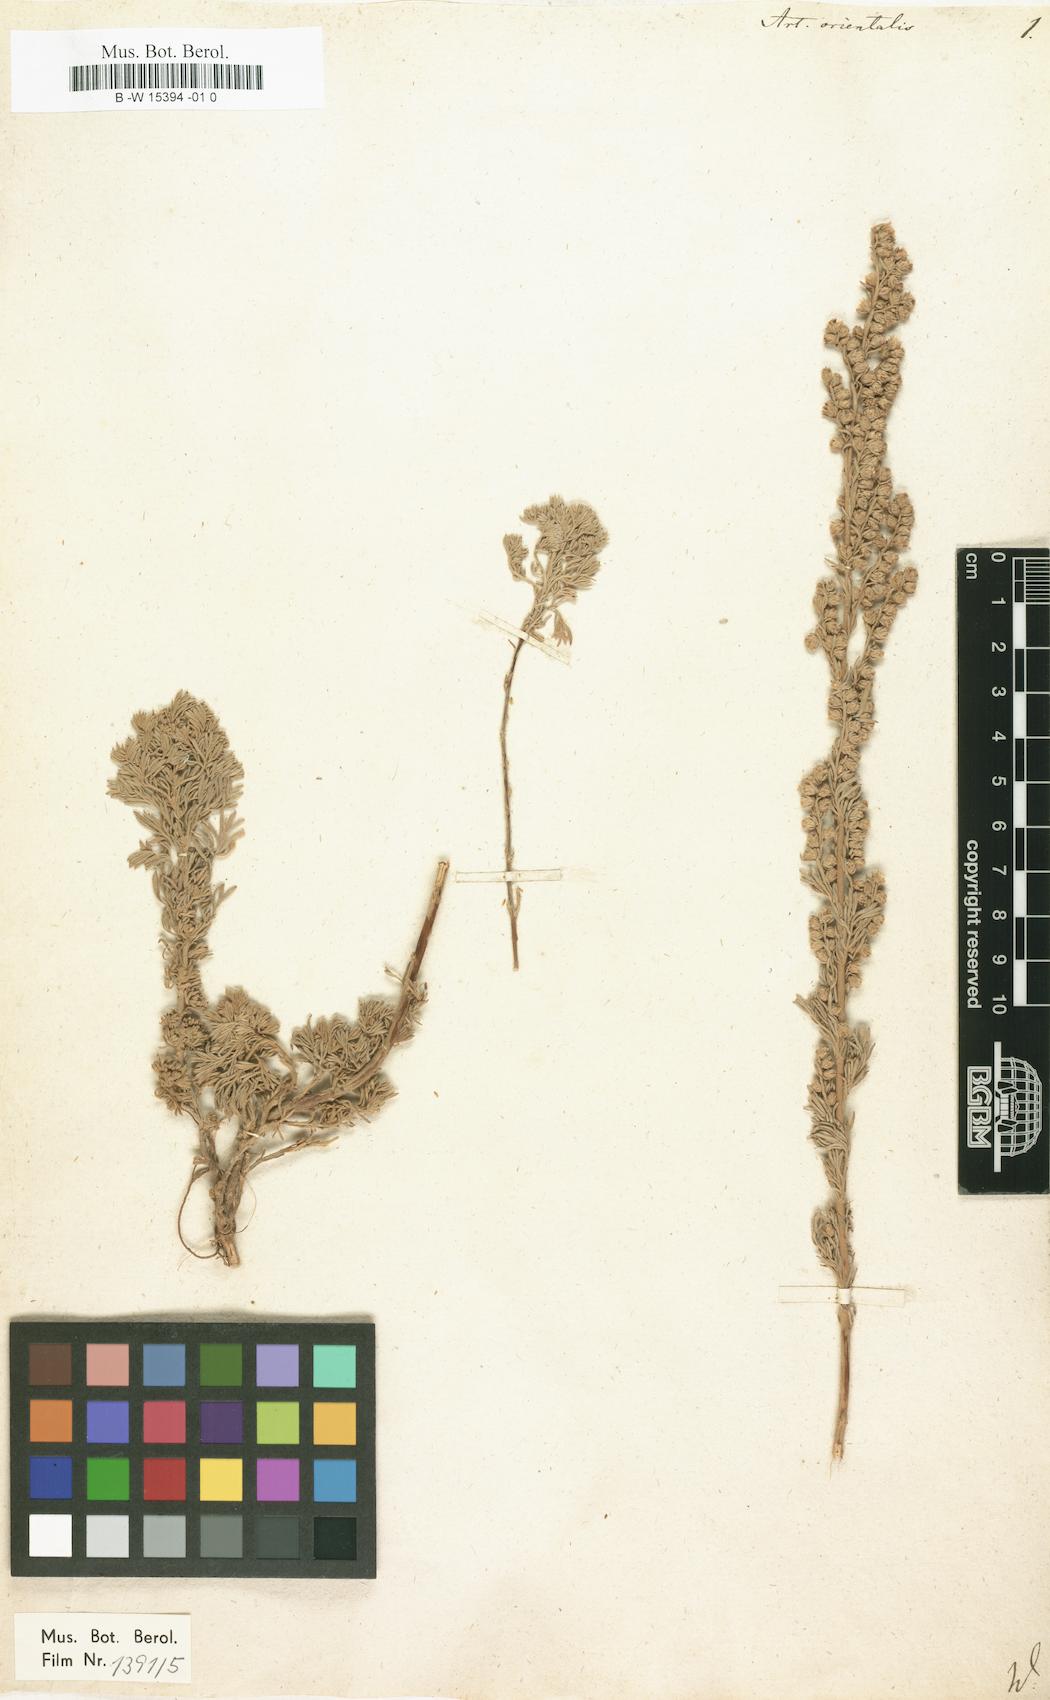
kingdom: Plantae
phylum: Tracheophyta
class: Magnoliopsida
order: Asterales
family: Asteraceae
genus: Artemisia
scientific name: Artemisia austriaca
